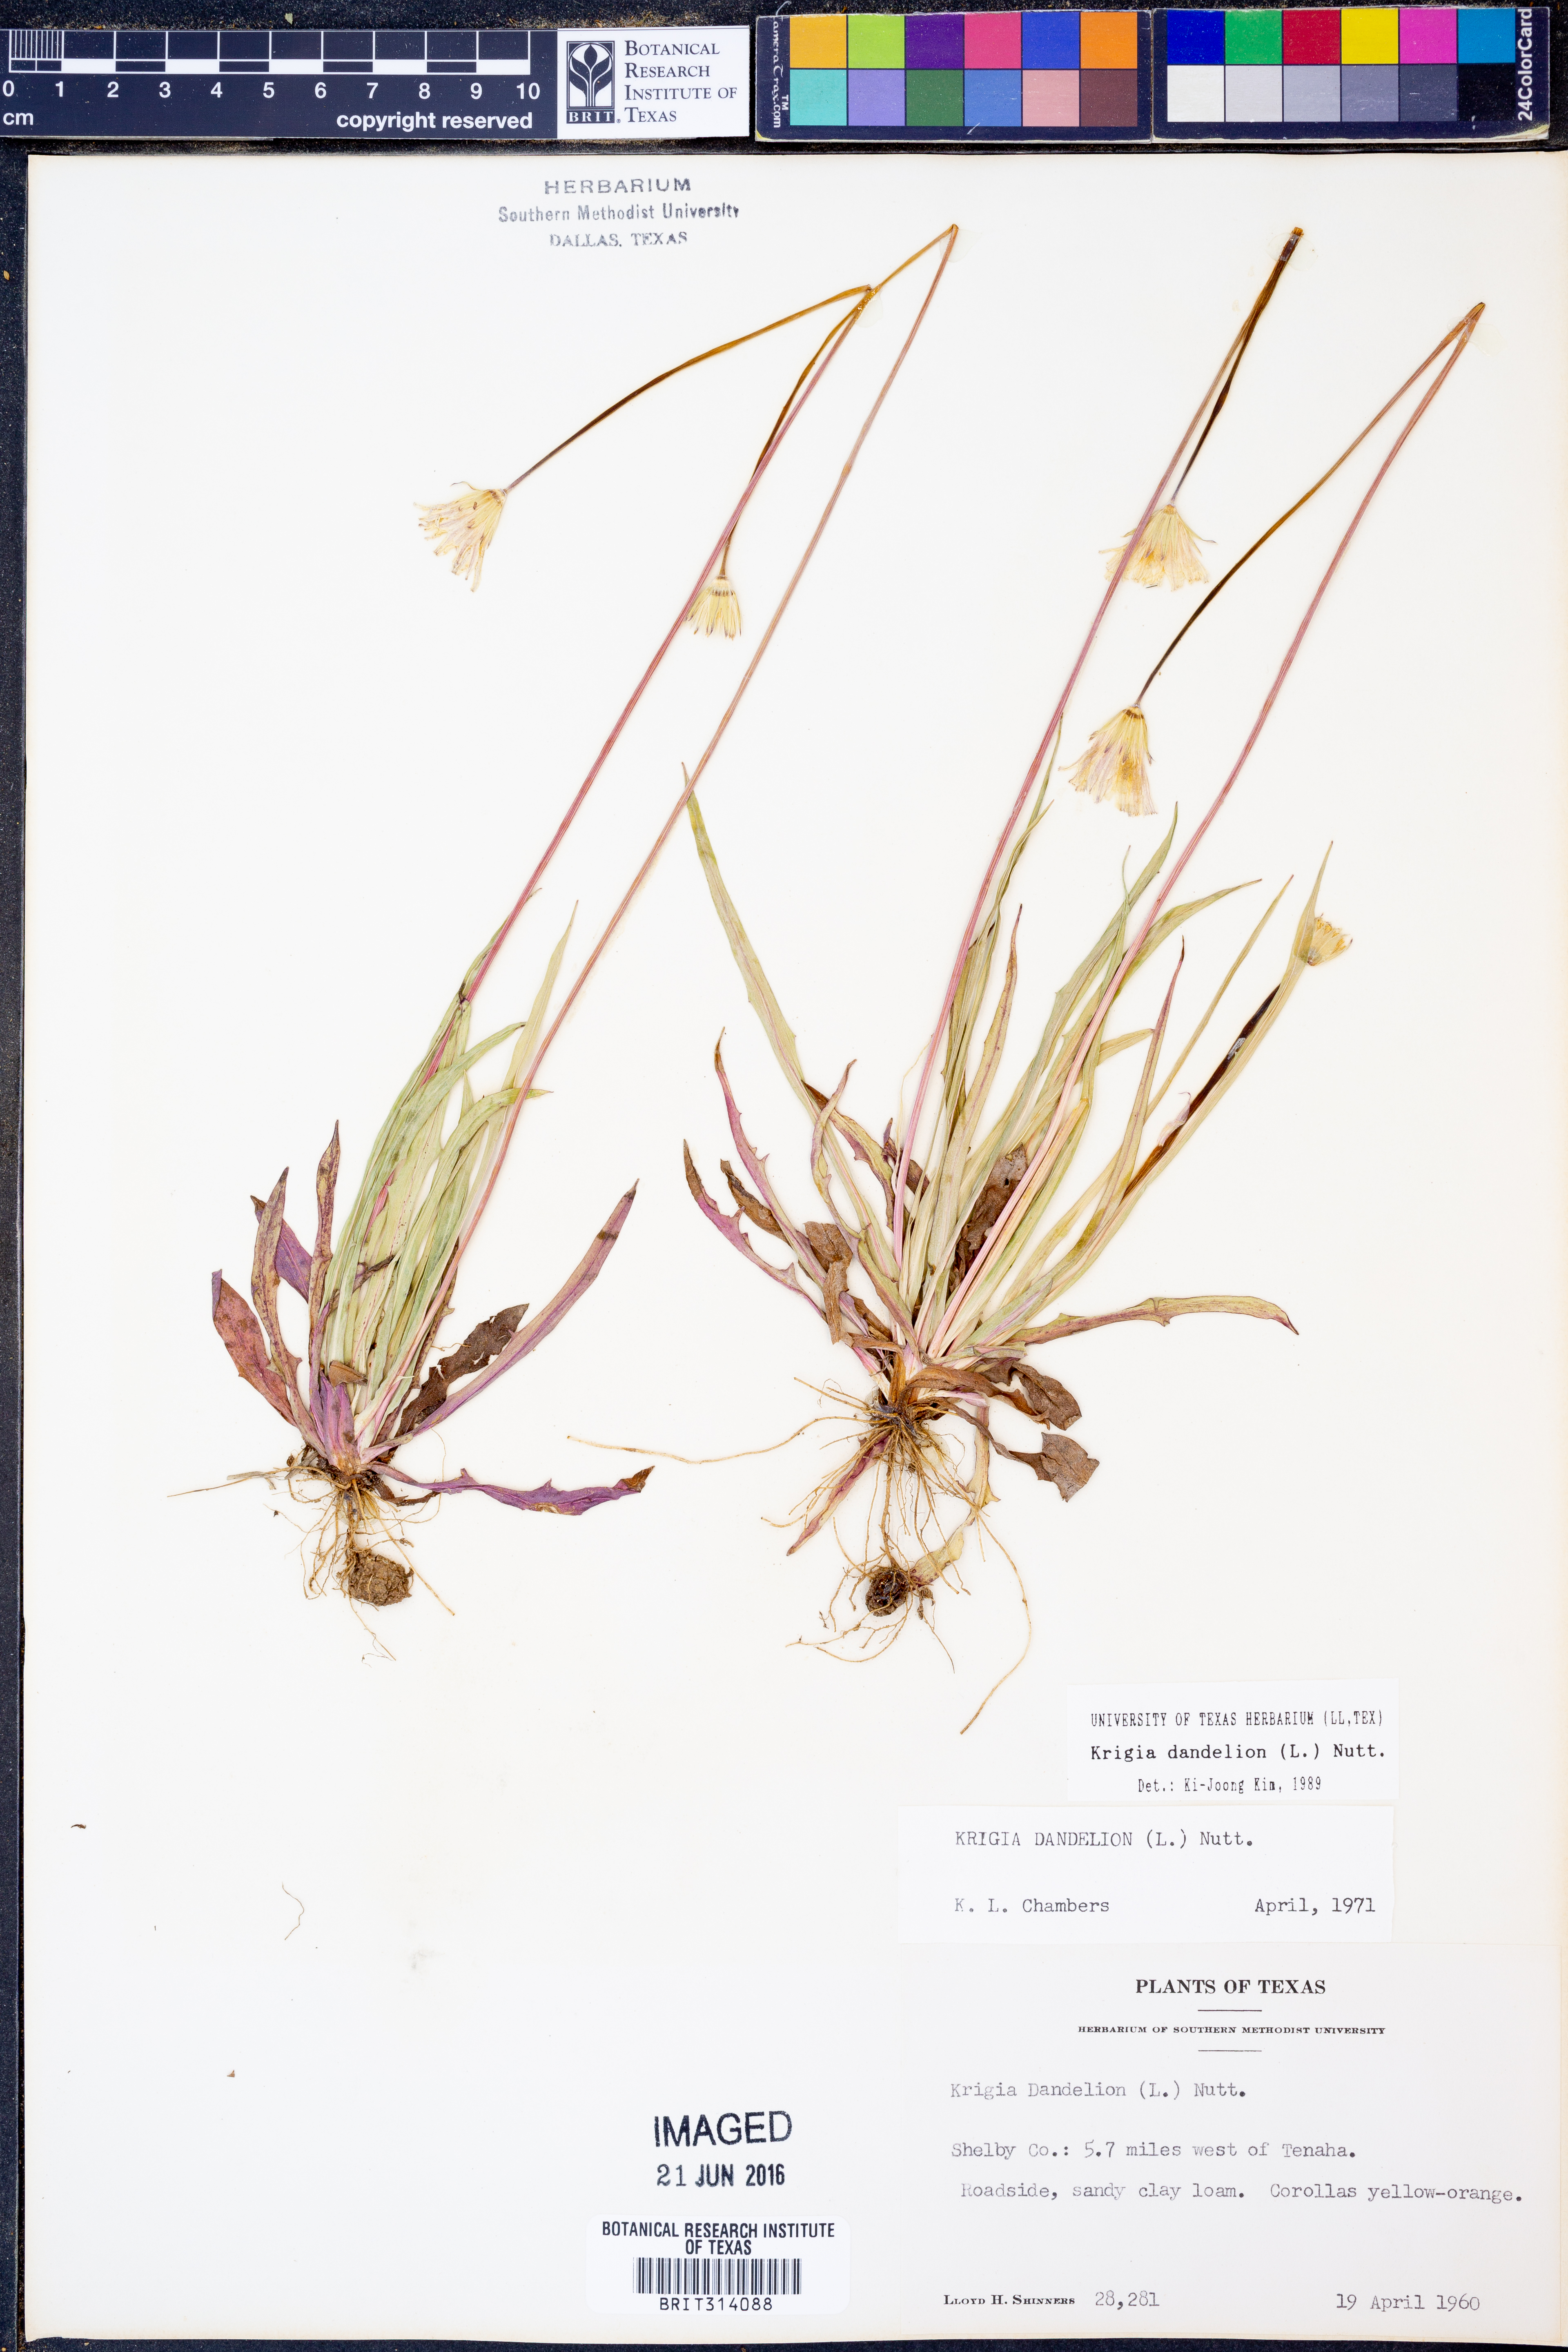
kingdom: Plantae
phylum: Tracheophyta
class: Magnoliopsida
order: Asterales
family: Asteraceae
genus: Krigia
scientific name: Krigia dandelion
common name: Colonial dwarf-dandelion
